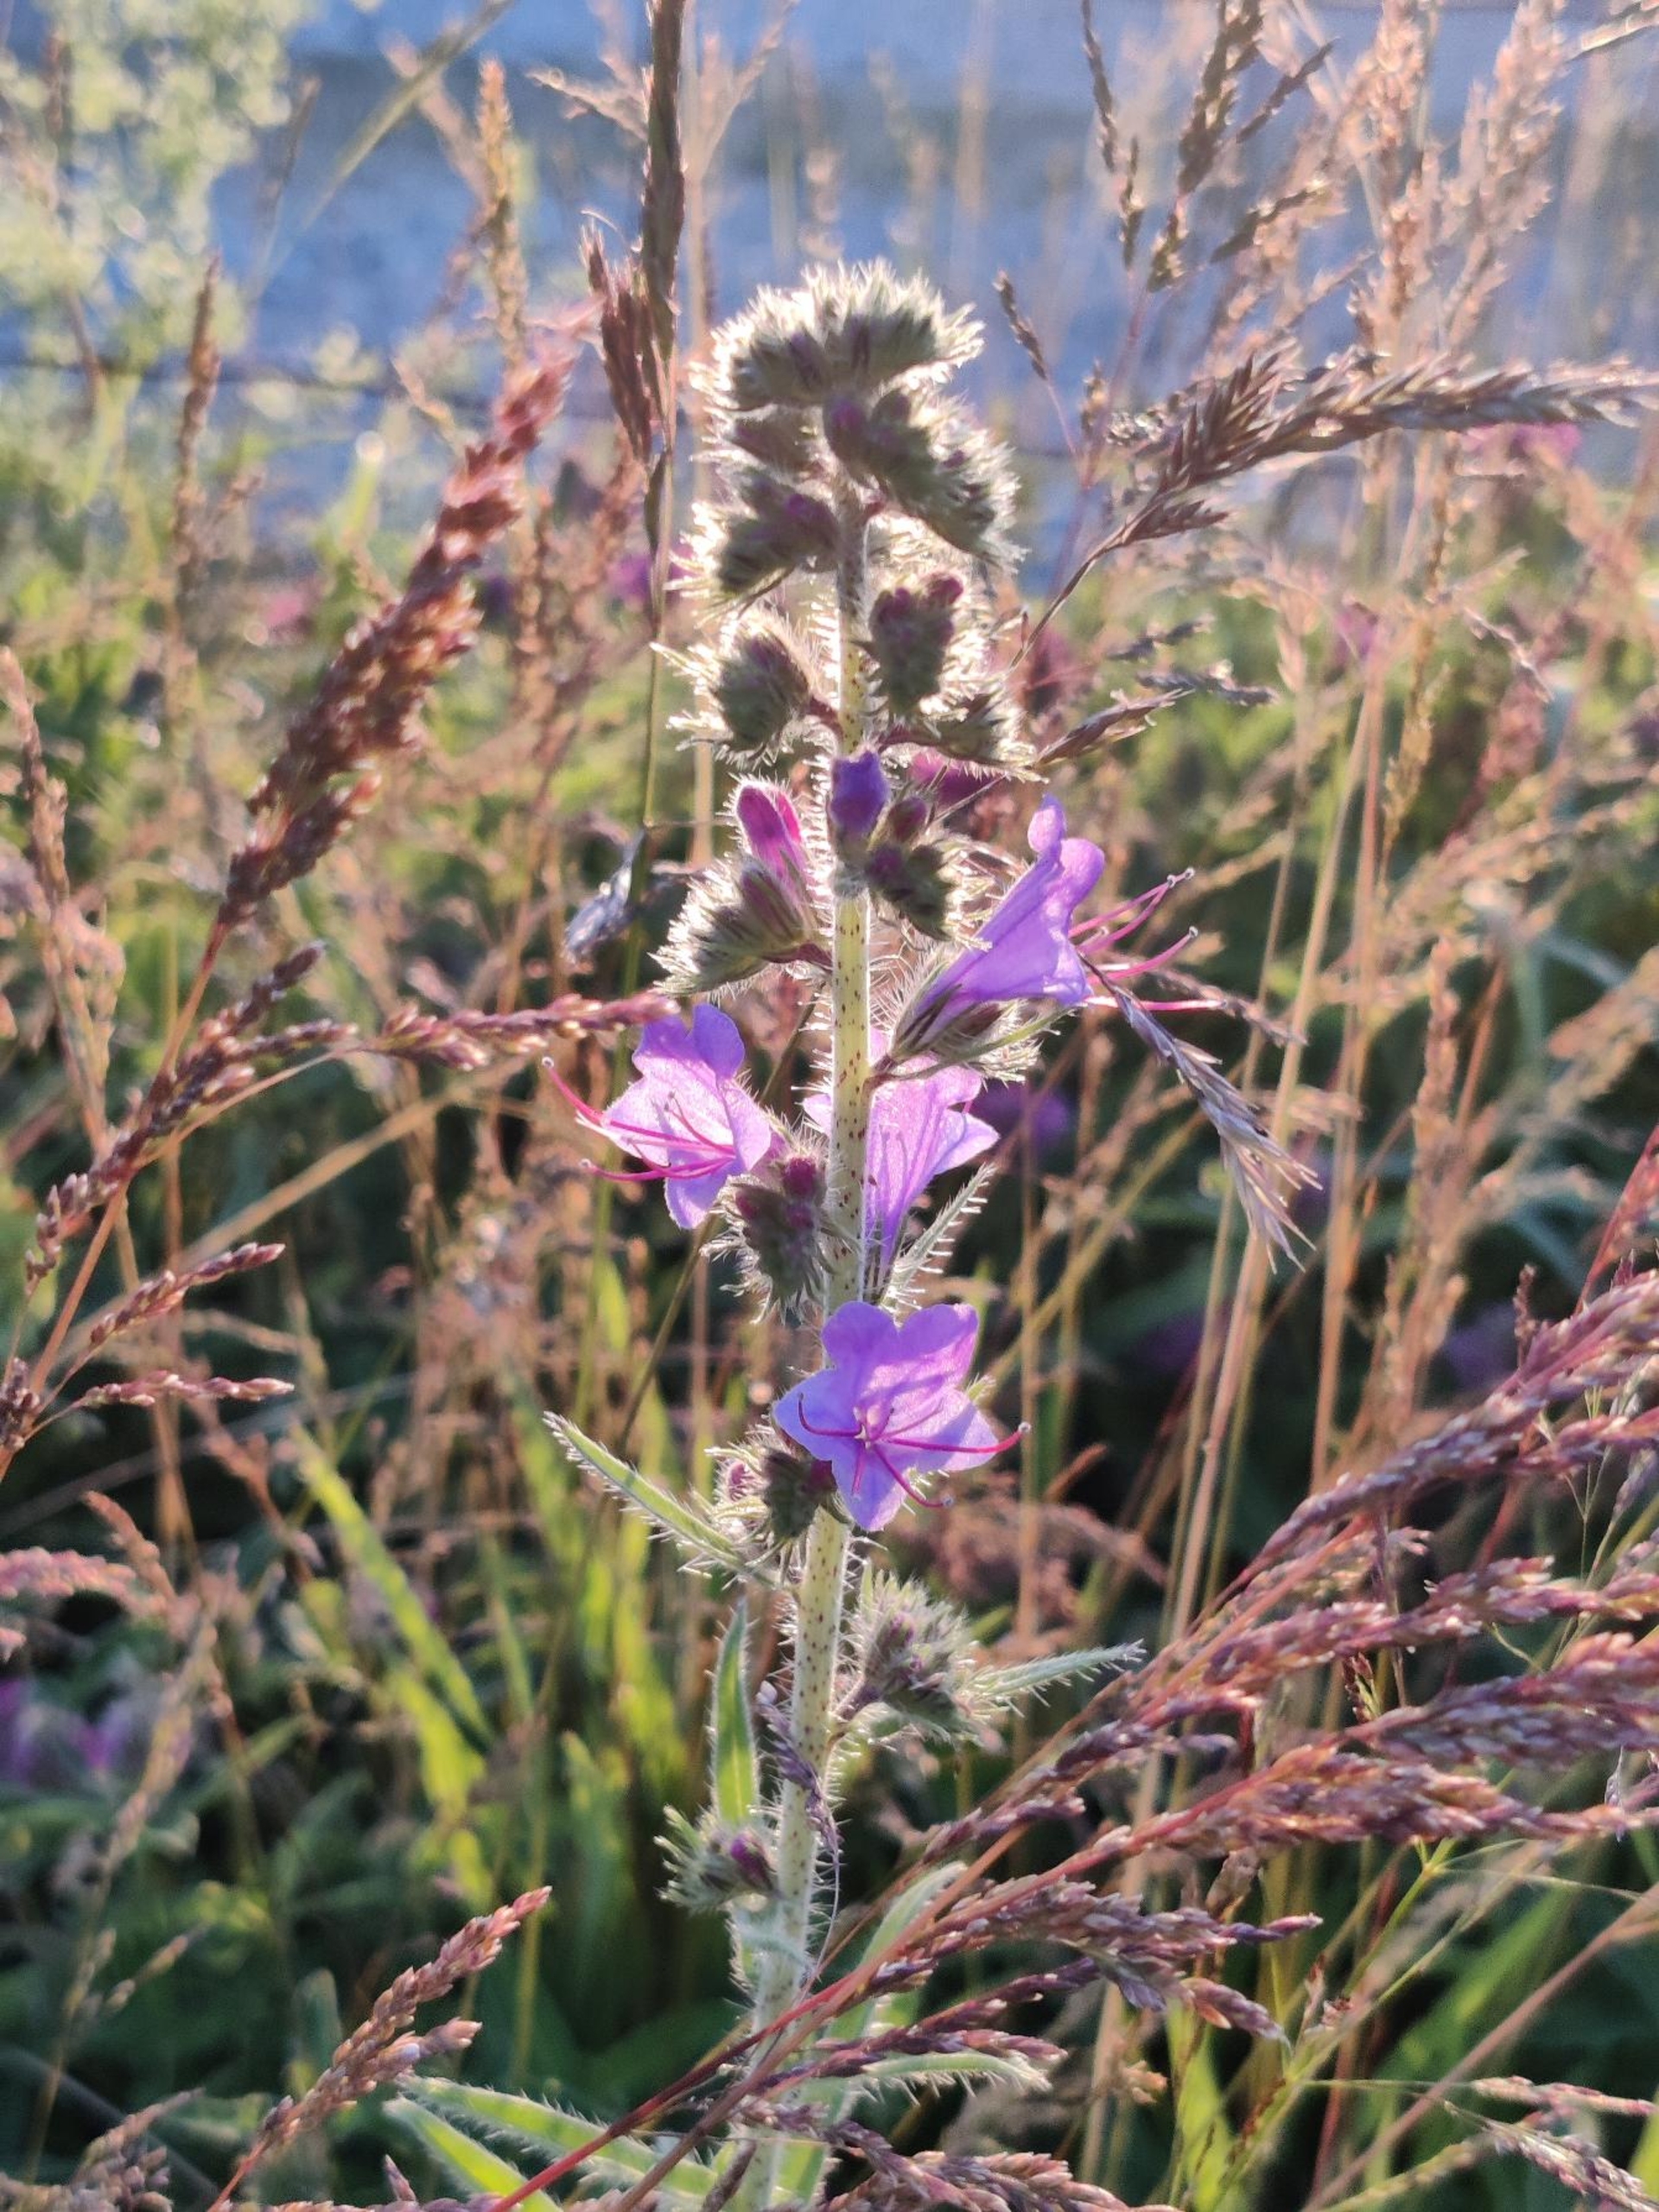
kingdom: Plantae
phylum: Tracheophyta
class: Magnoliopsida
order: Boraginales
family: Boraginaceae
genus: Echium
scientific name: Echium vulgare
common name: Slangehoved
